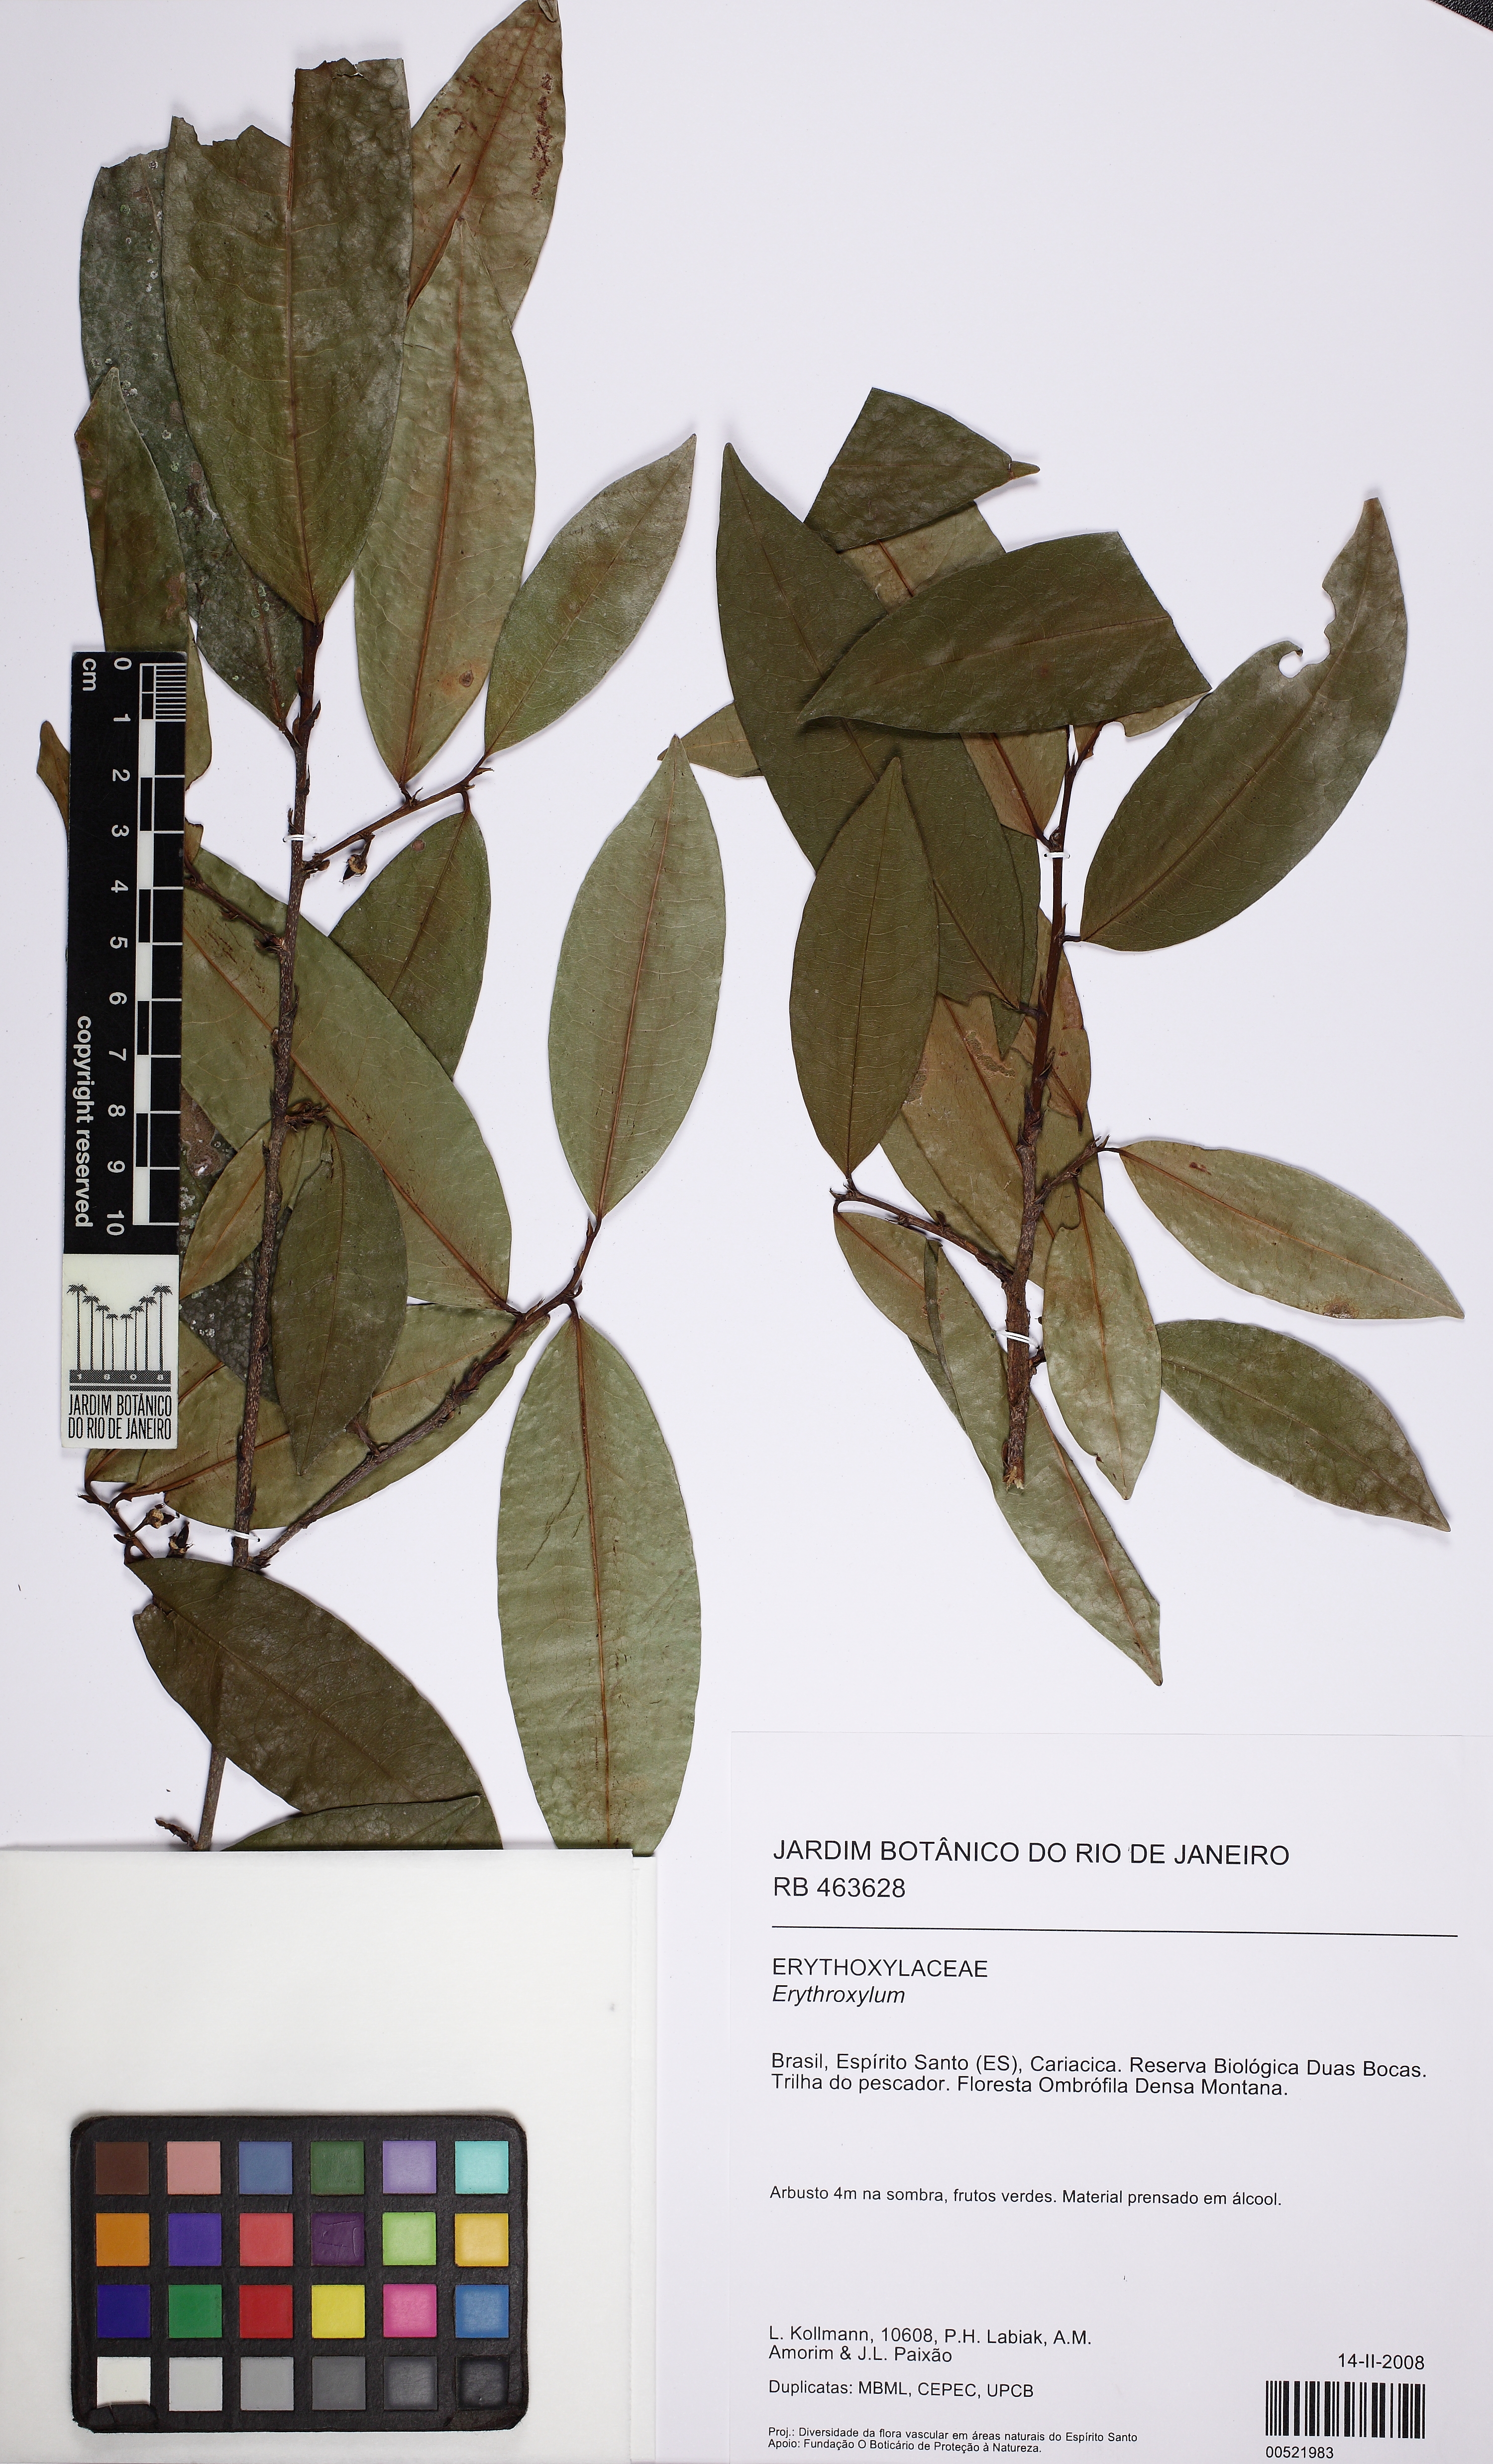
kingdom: Plantae
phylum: Tracheophyta
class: Magnoliopsida
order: Malpighiales
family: Erythroxylaceae
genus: Erythroxylum
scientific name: Erythroxylum passerinum
